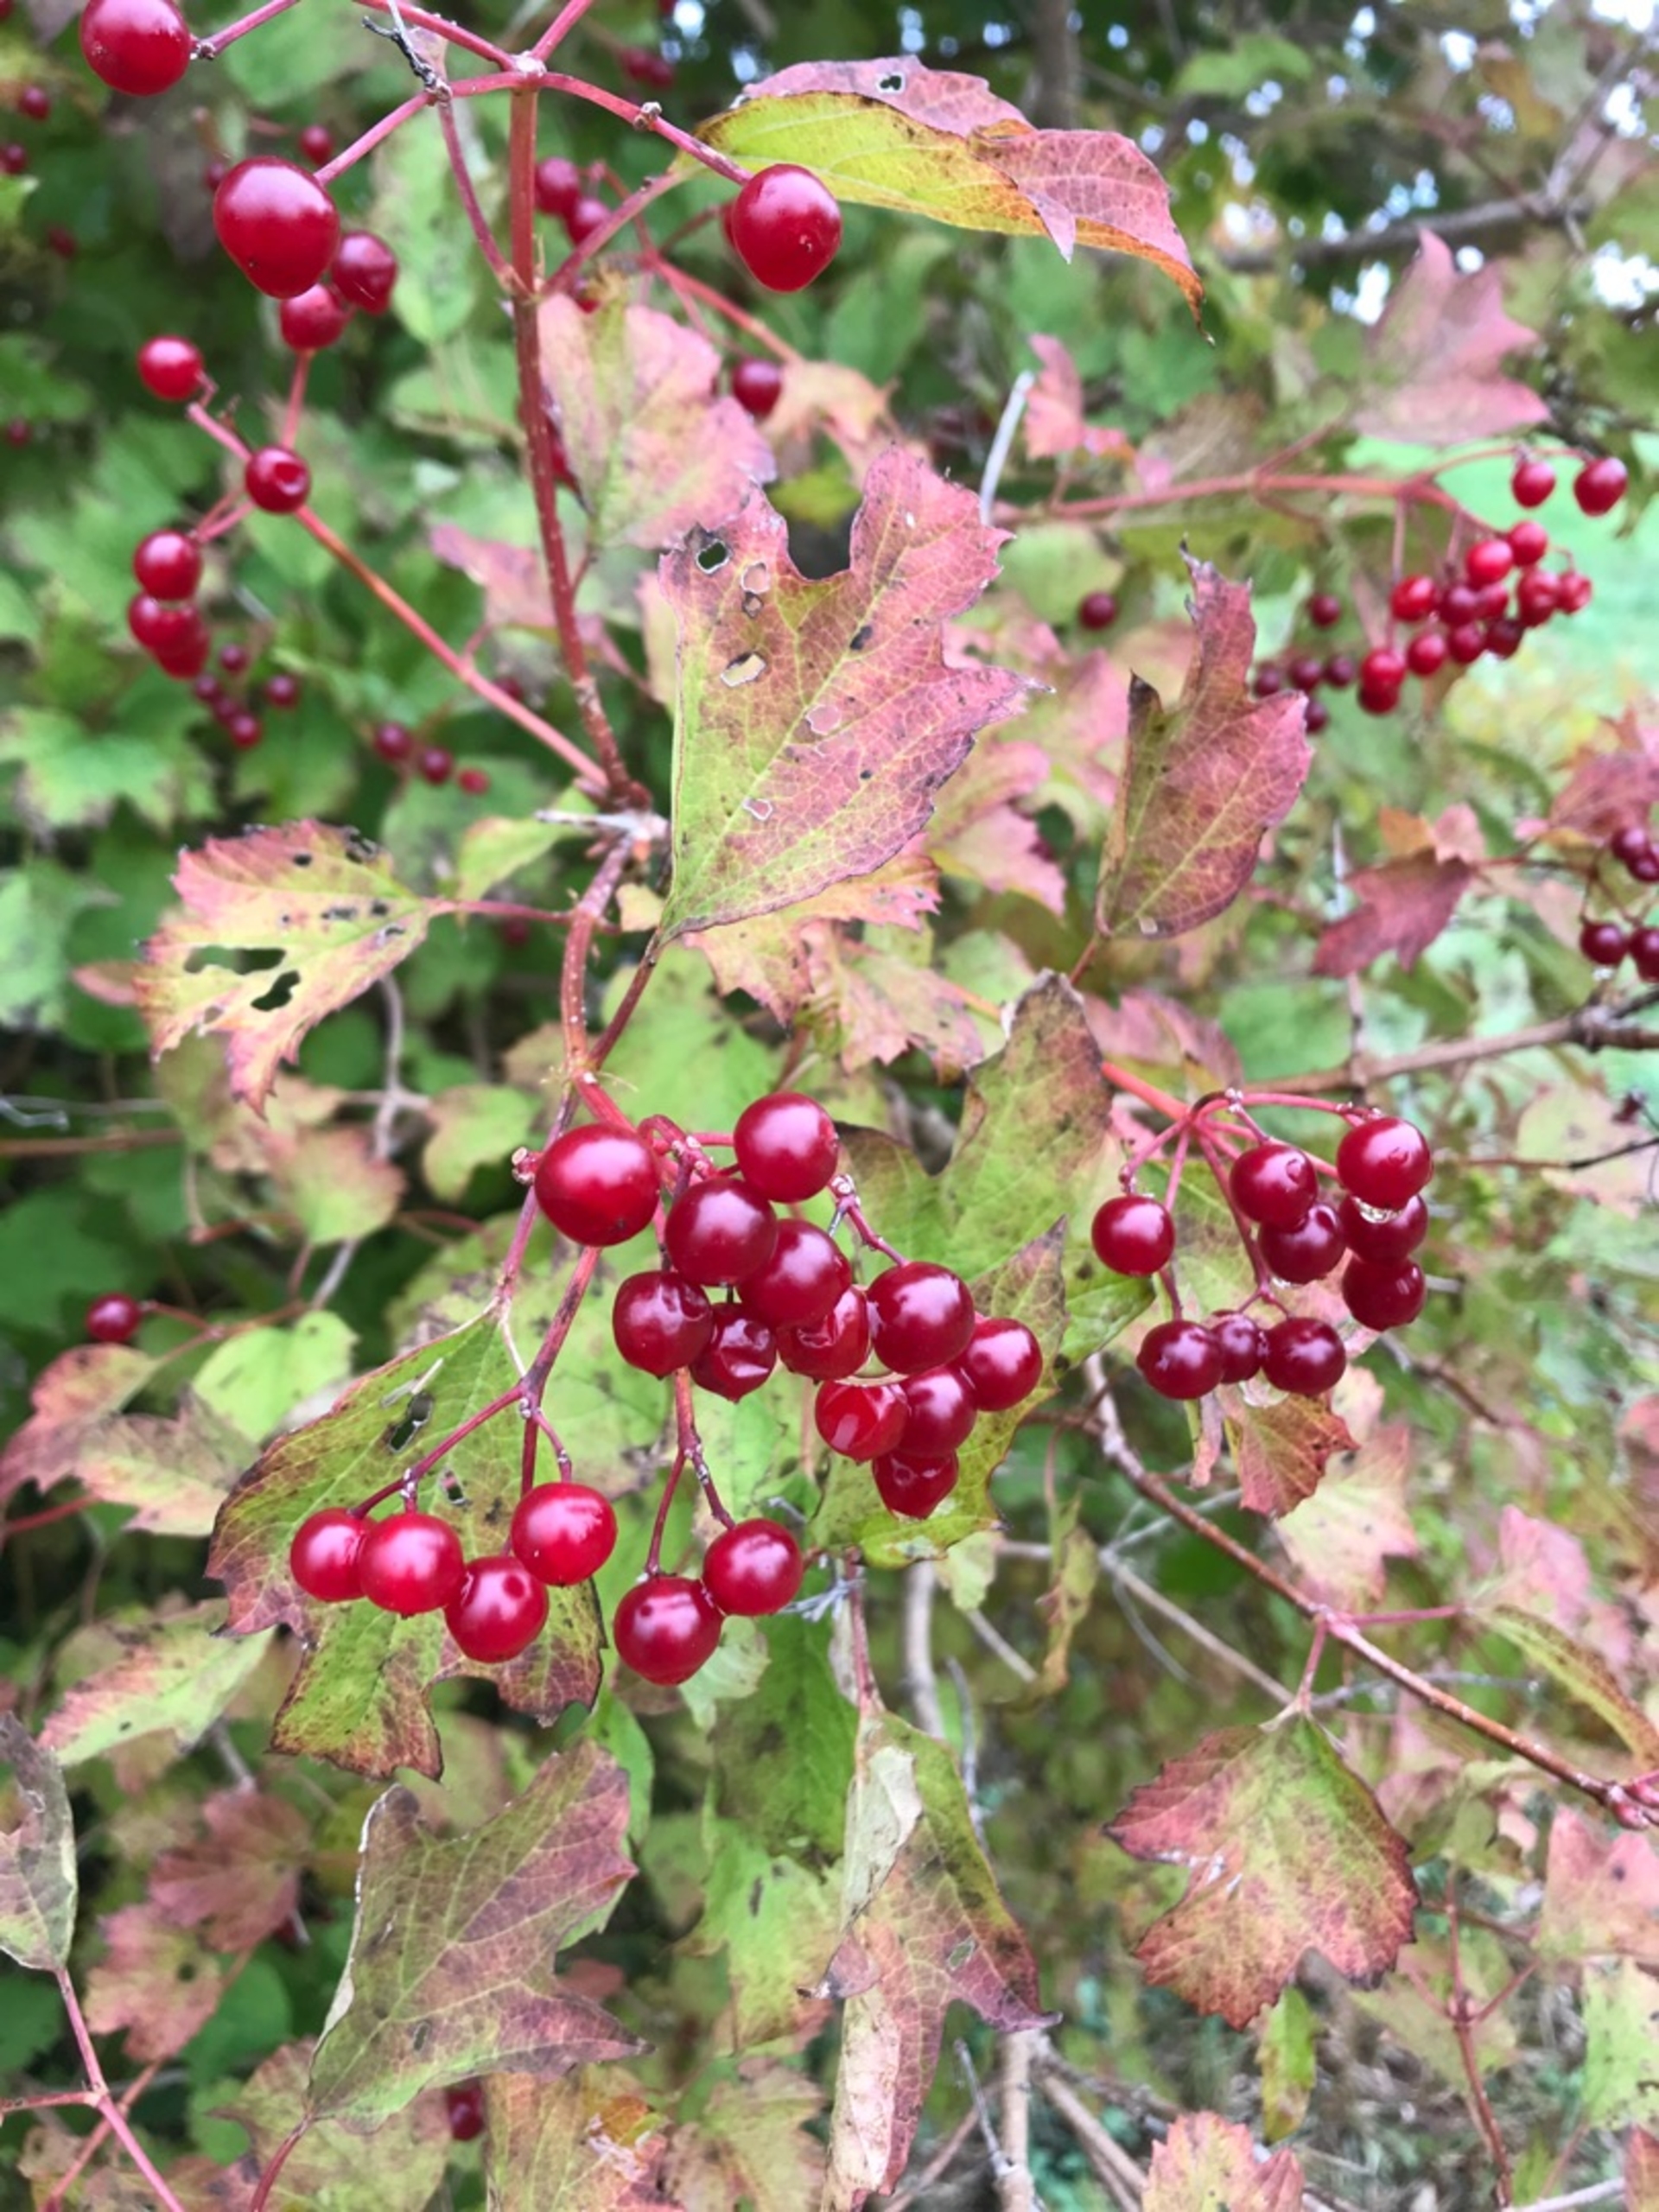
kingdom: Plantae
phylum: Tracheophyta
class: Magnoliopsida
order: Dipsacales
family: Viburnaceae
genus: Viburnum
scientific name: Viburnum opulus
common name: Kvalkved
